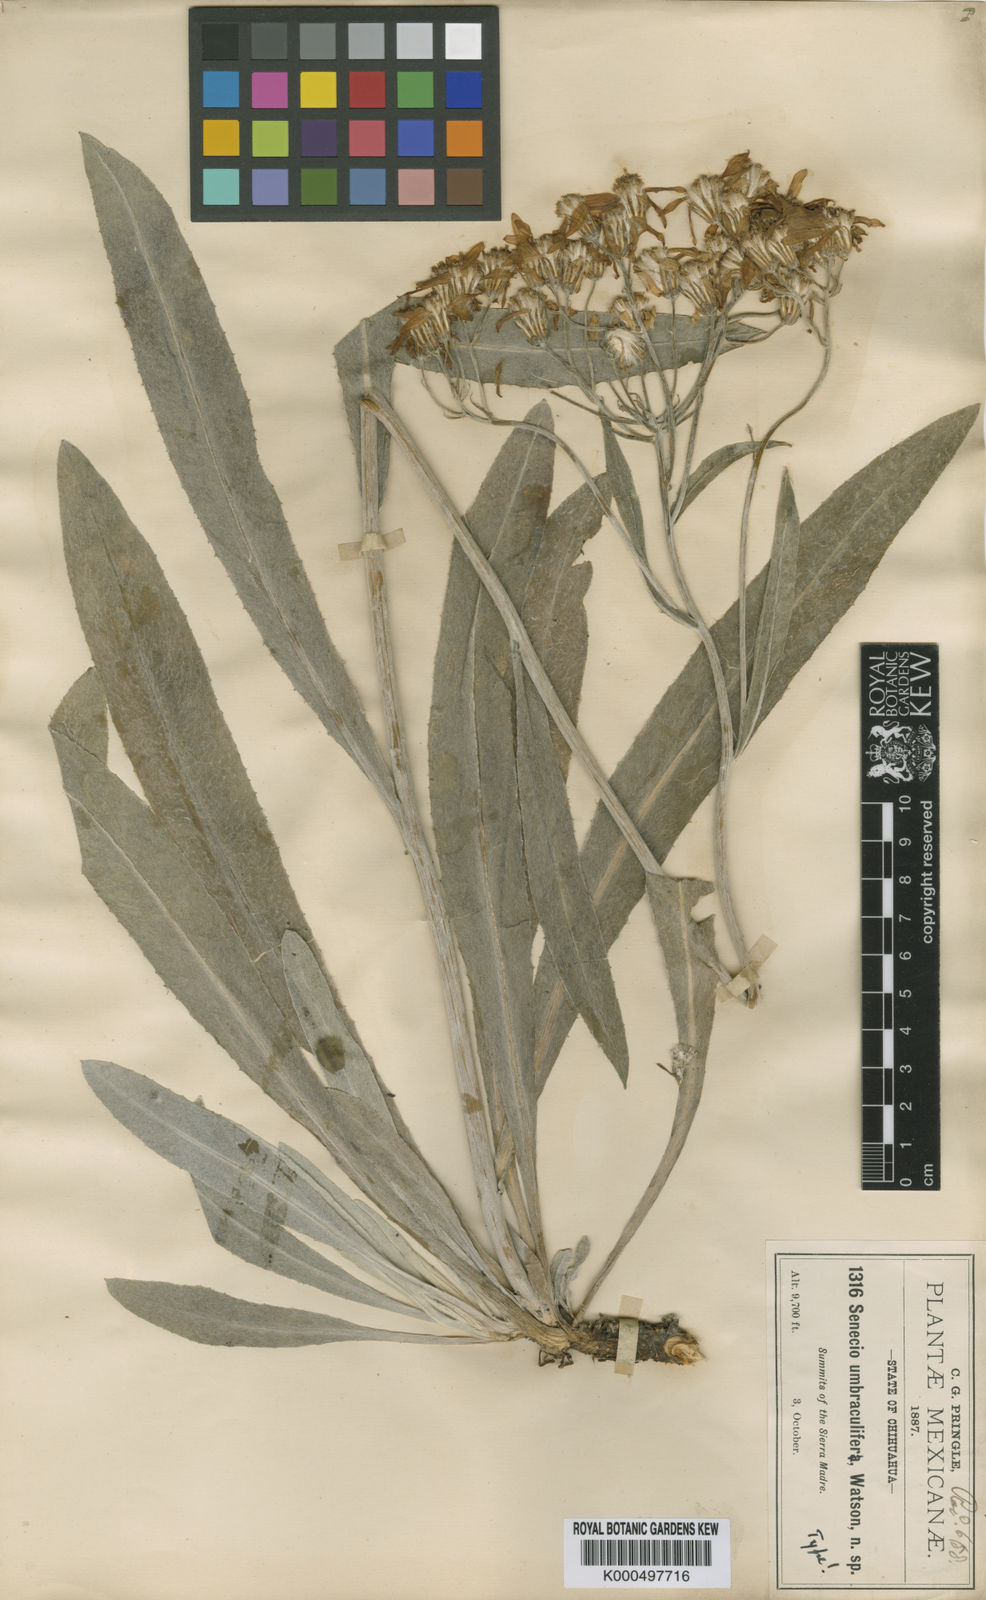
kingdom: Plantae
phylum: Tracheophyta
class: Magnoliopsida
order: Asterales
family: Asteraceae
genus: Packera
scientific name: Packera umbraculifera
